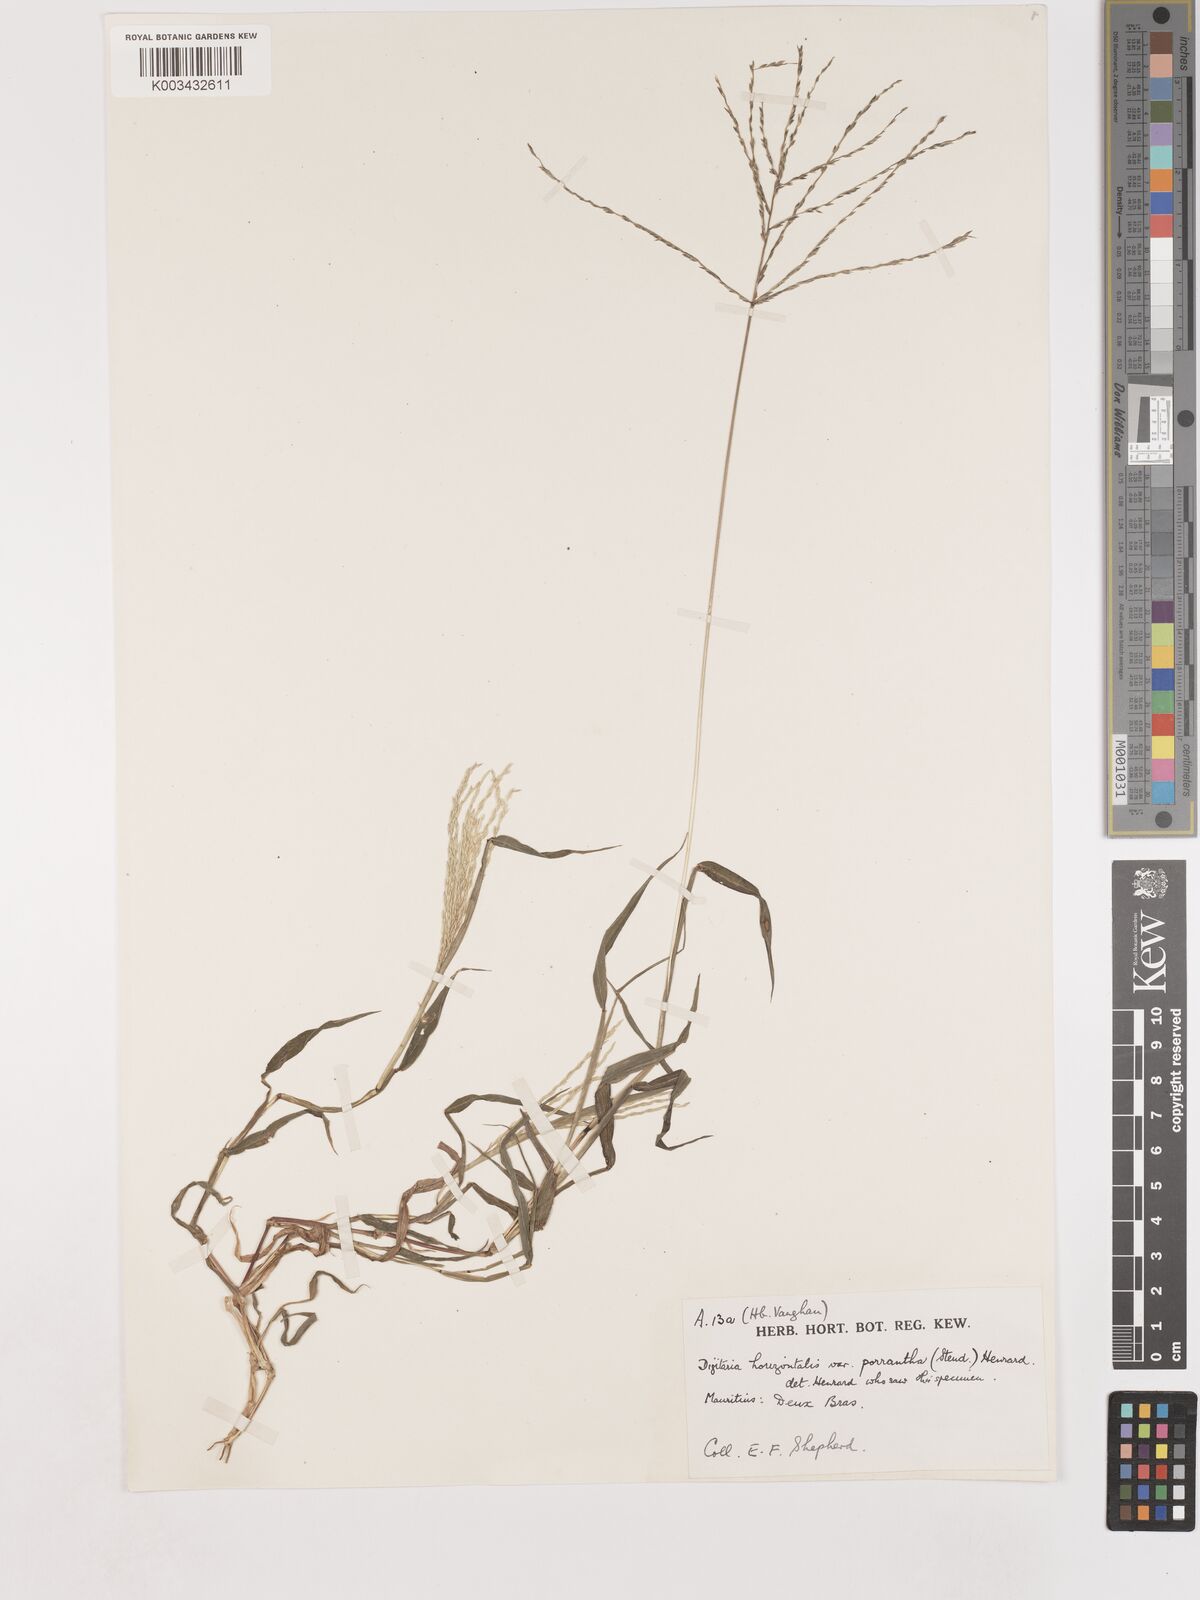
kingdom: Plantae
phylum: Tracheophyta
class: Liliopsida
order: Poales
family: Poaceae
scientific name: Poaceae
